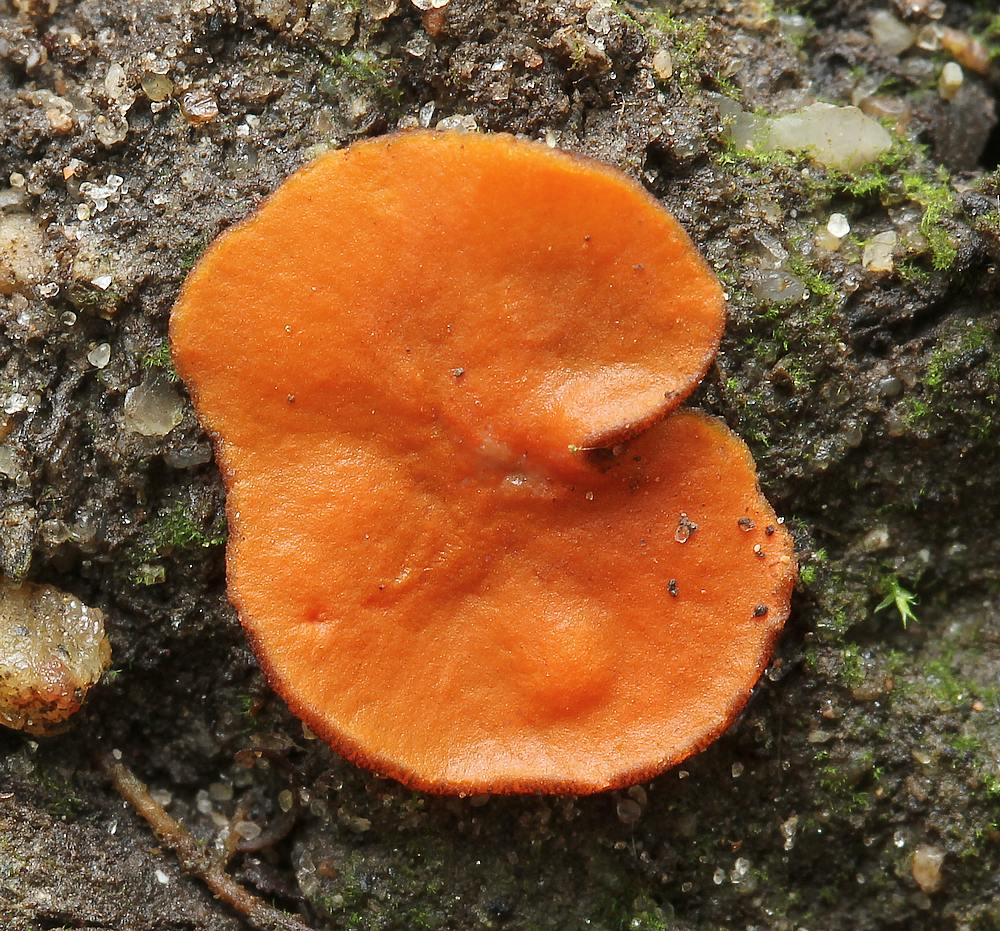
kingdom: Fungi
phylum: Ascomycota
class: Pezizomycetes
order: Pezizales
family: Pyronemataceae
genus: Melastiza
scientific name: Melastiza cornubiensis
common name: mørkrandet rødbæger
